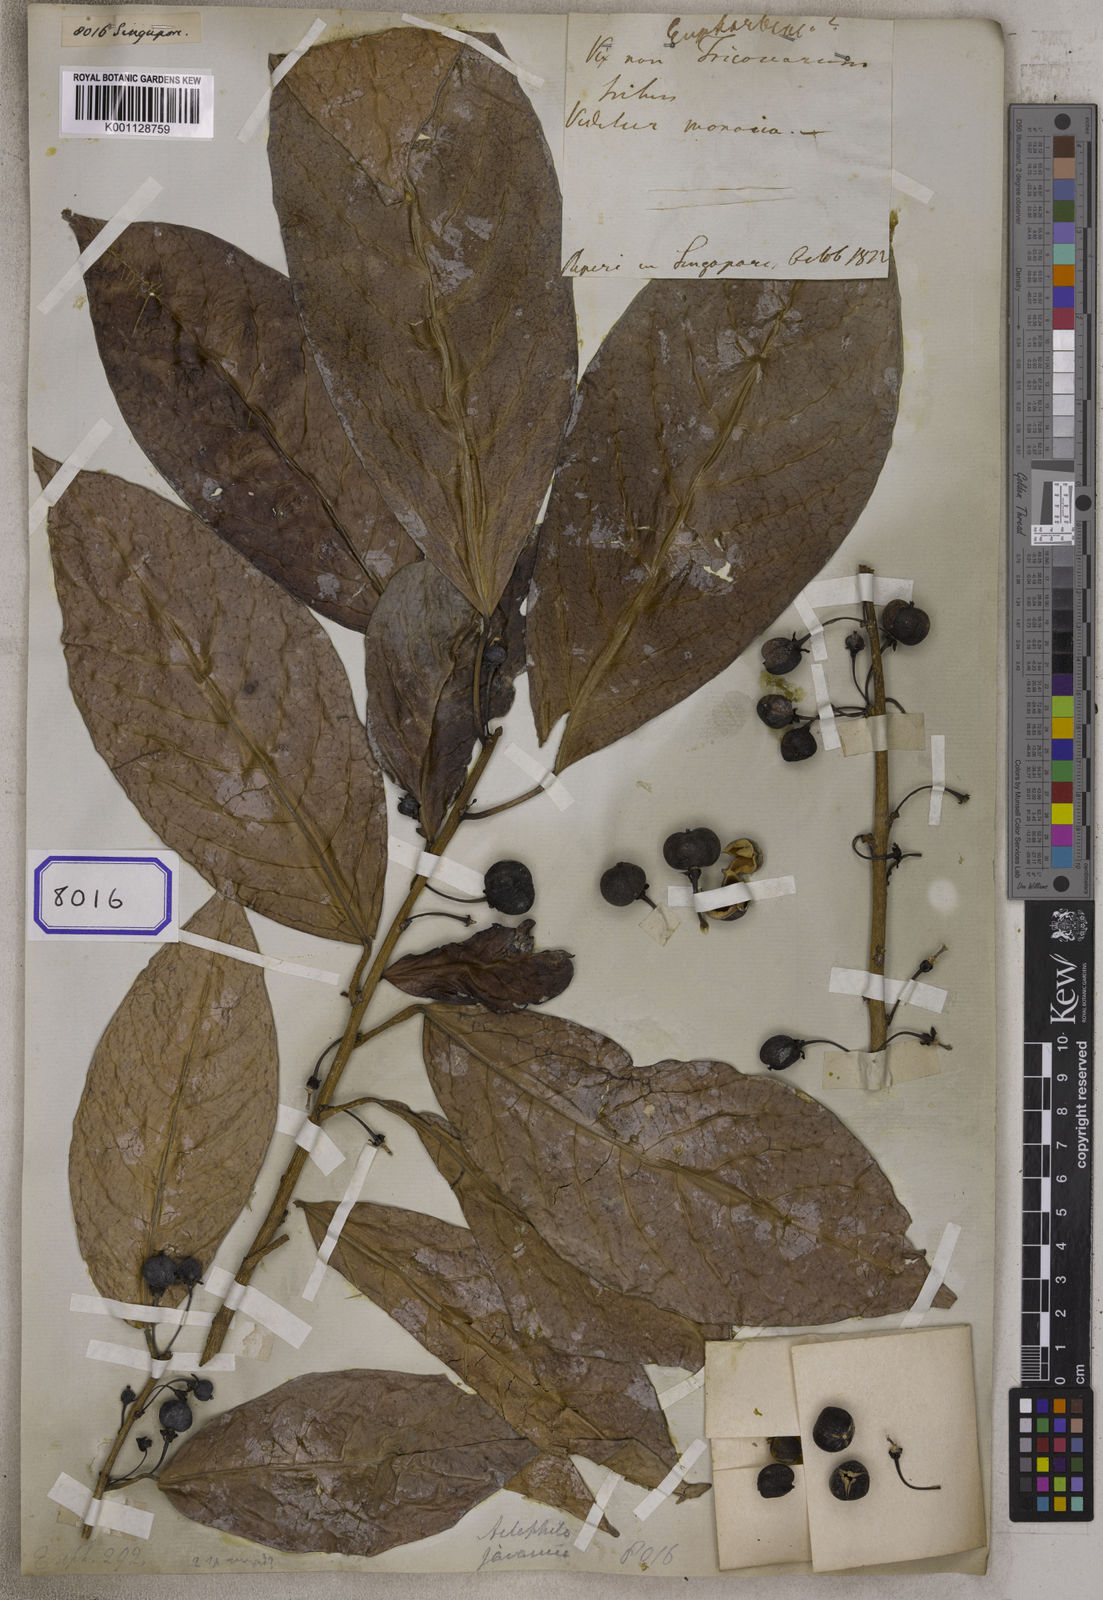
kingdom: Plantae
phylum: Tracheophyta
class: Magnoliopsida
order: Malpighiales
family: Euphorbiaceae
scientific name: Euphorbiaceae
